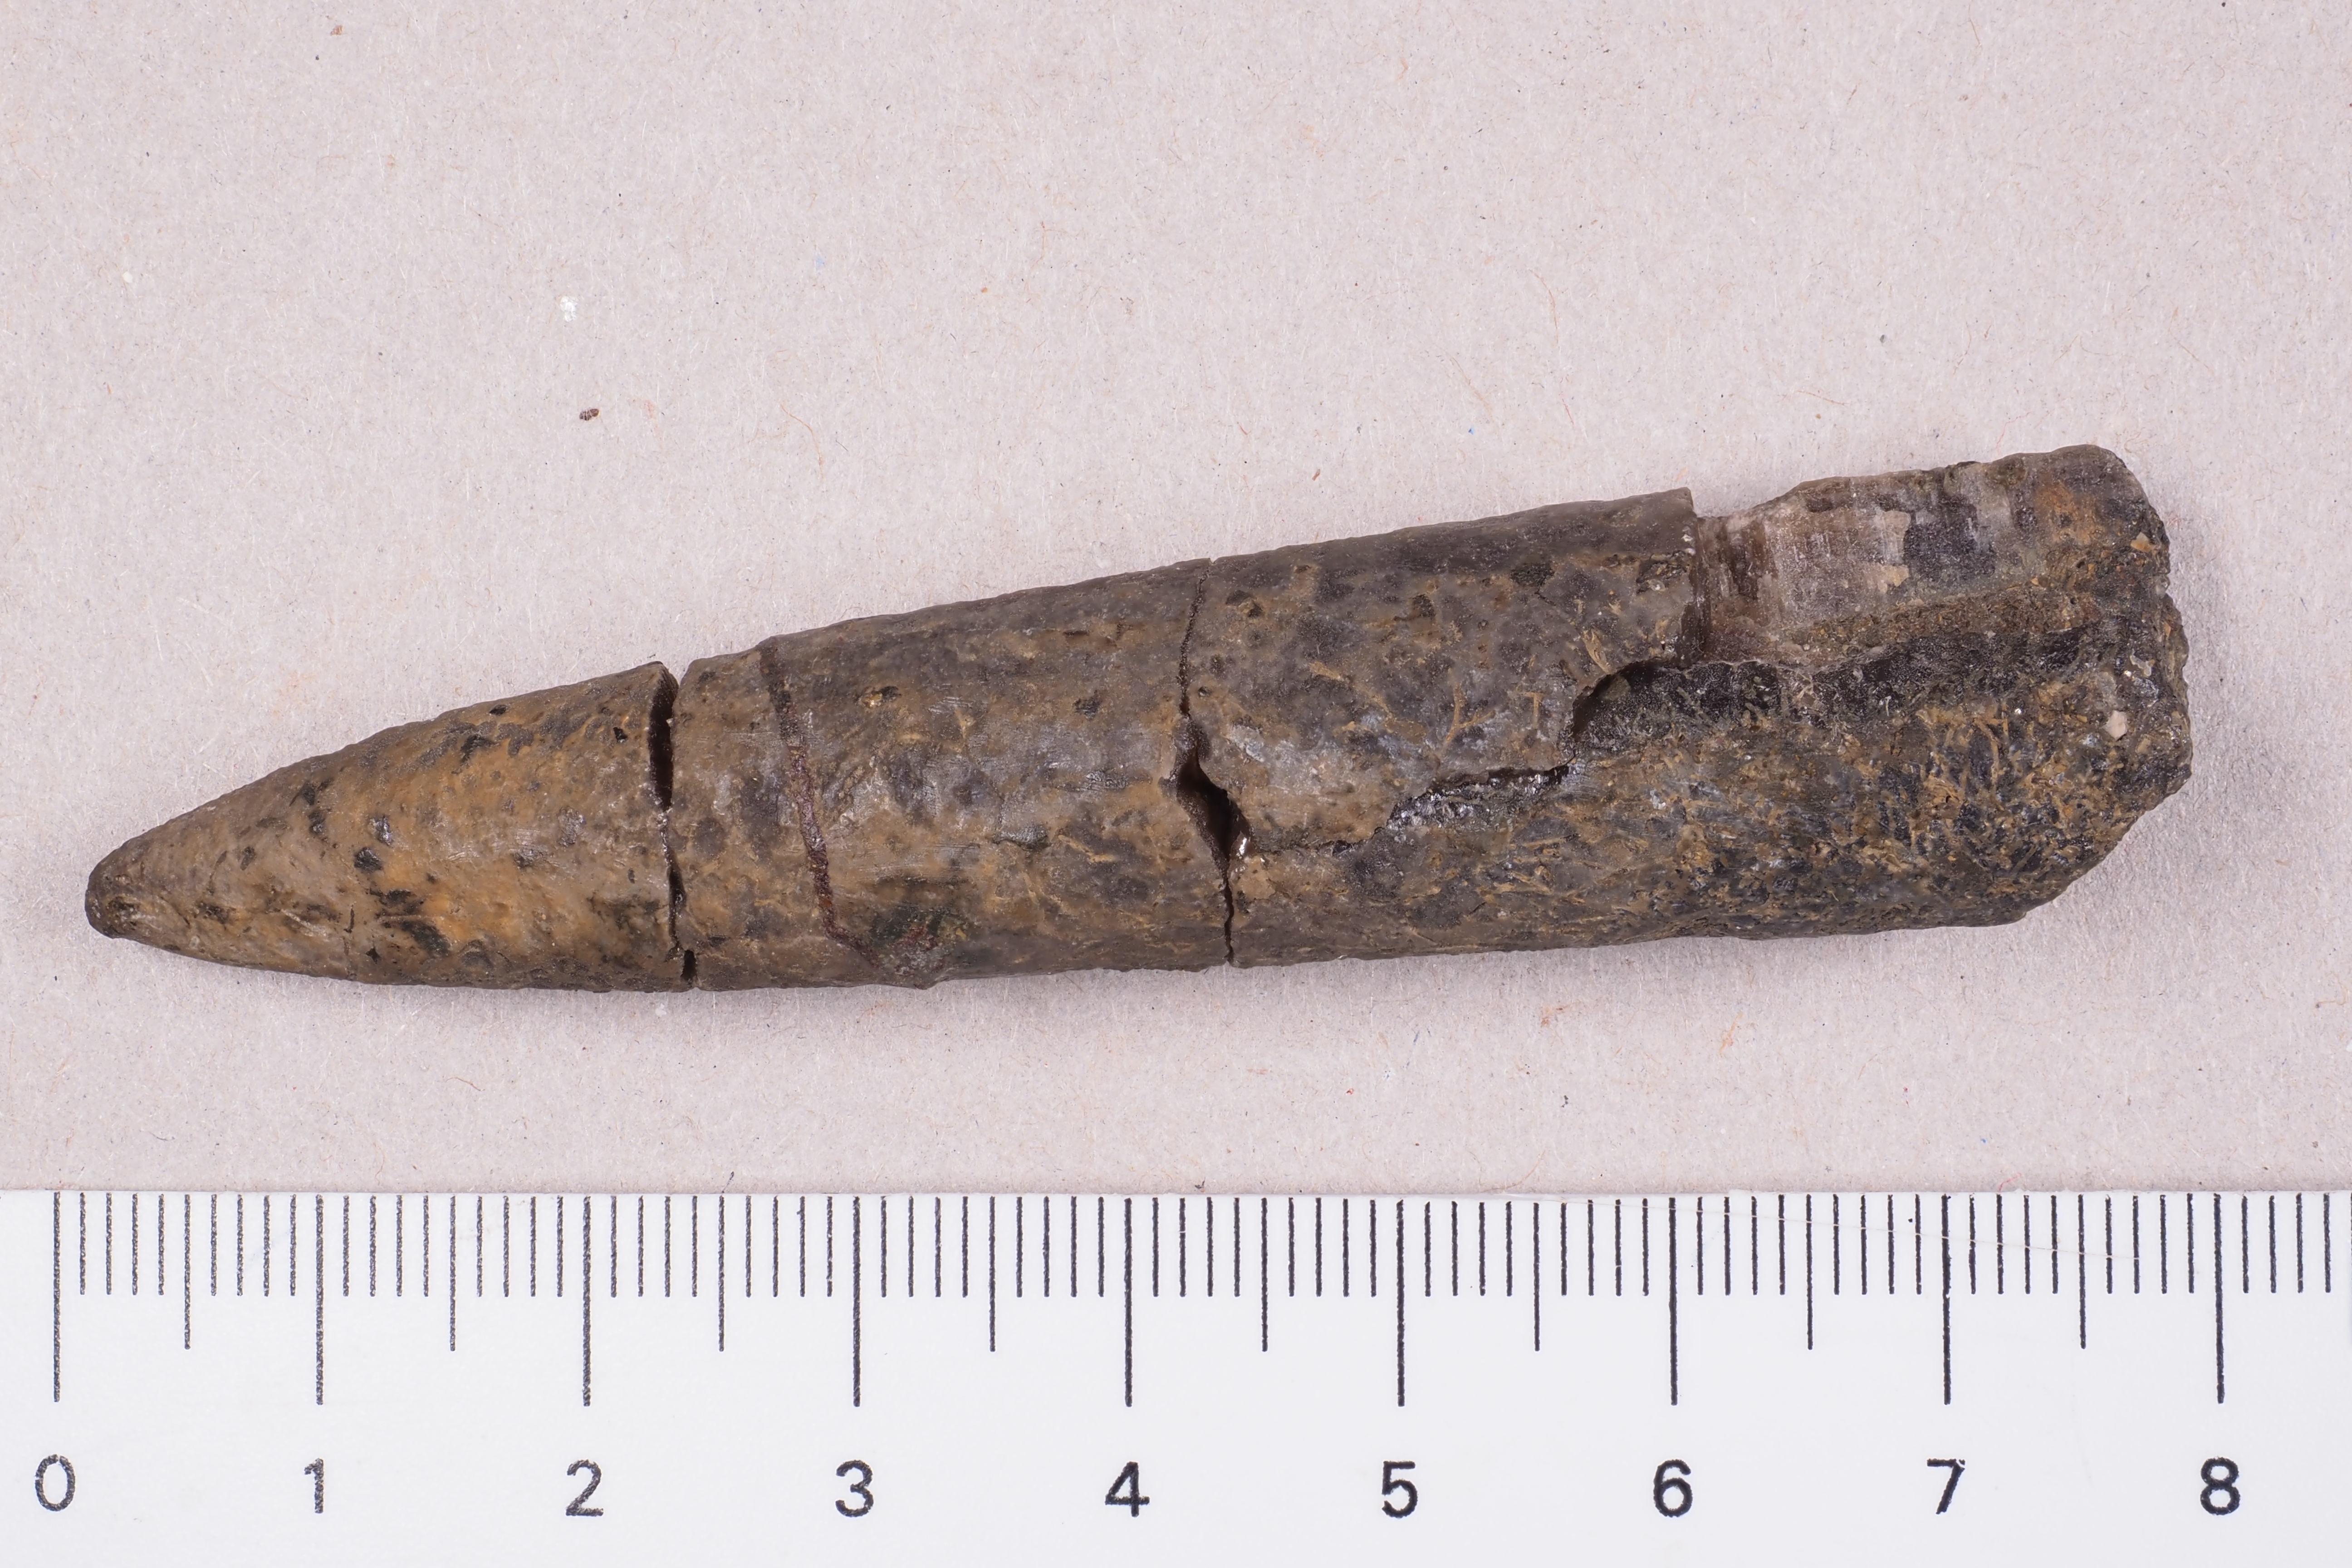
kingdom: Animalia
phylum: Mollusca
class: Cephalopoda
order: Belemnitida
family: Megateuthididae
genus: Acrocoelites
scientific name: Acrocoelites
